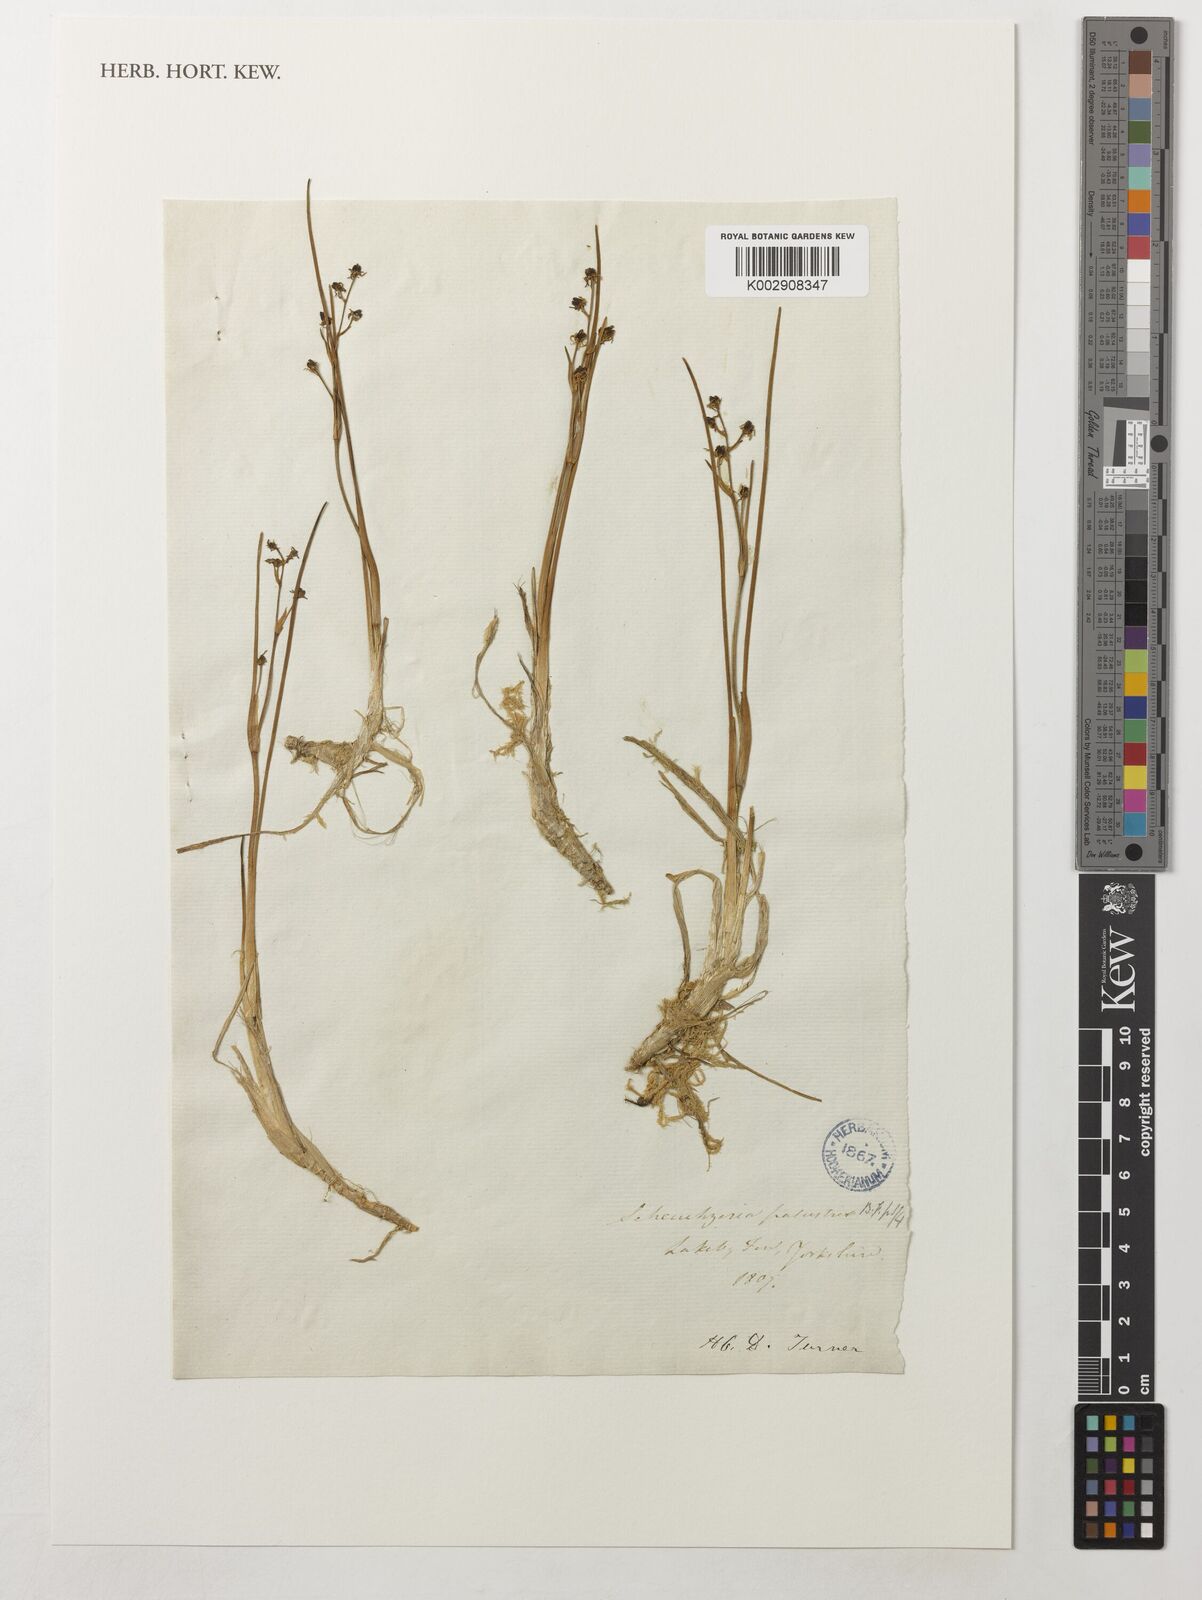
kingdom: Plantae
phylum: Tracheophyta
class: Liliopsida
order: Alismatales
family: Scheuchzeriaceae
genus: Scheuchzeria
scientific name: Scheuchzeria palustris
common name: Rannoch-rush
